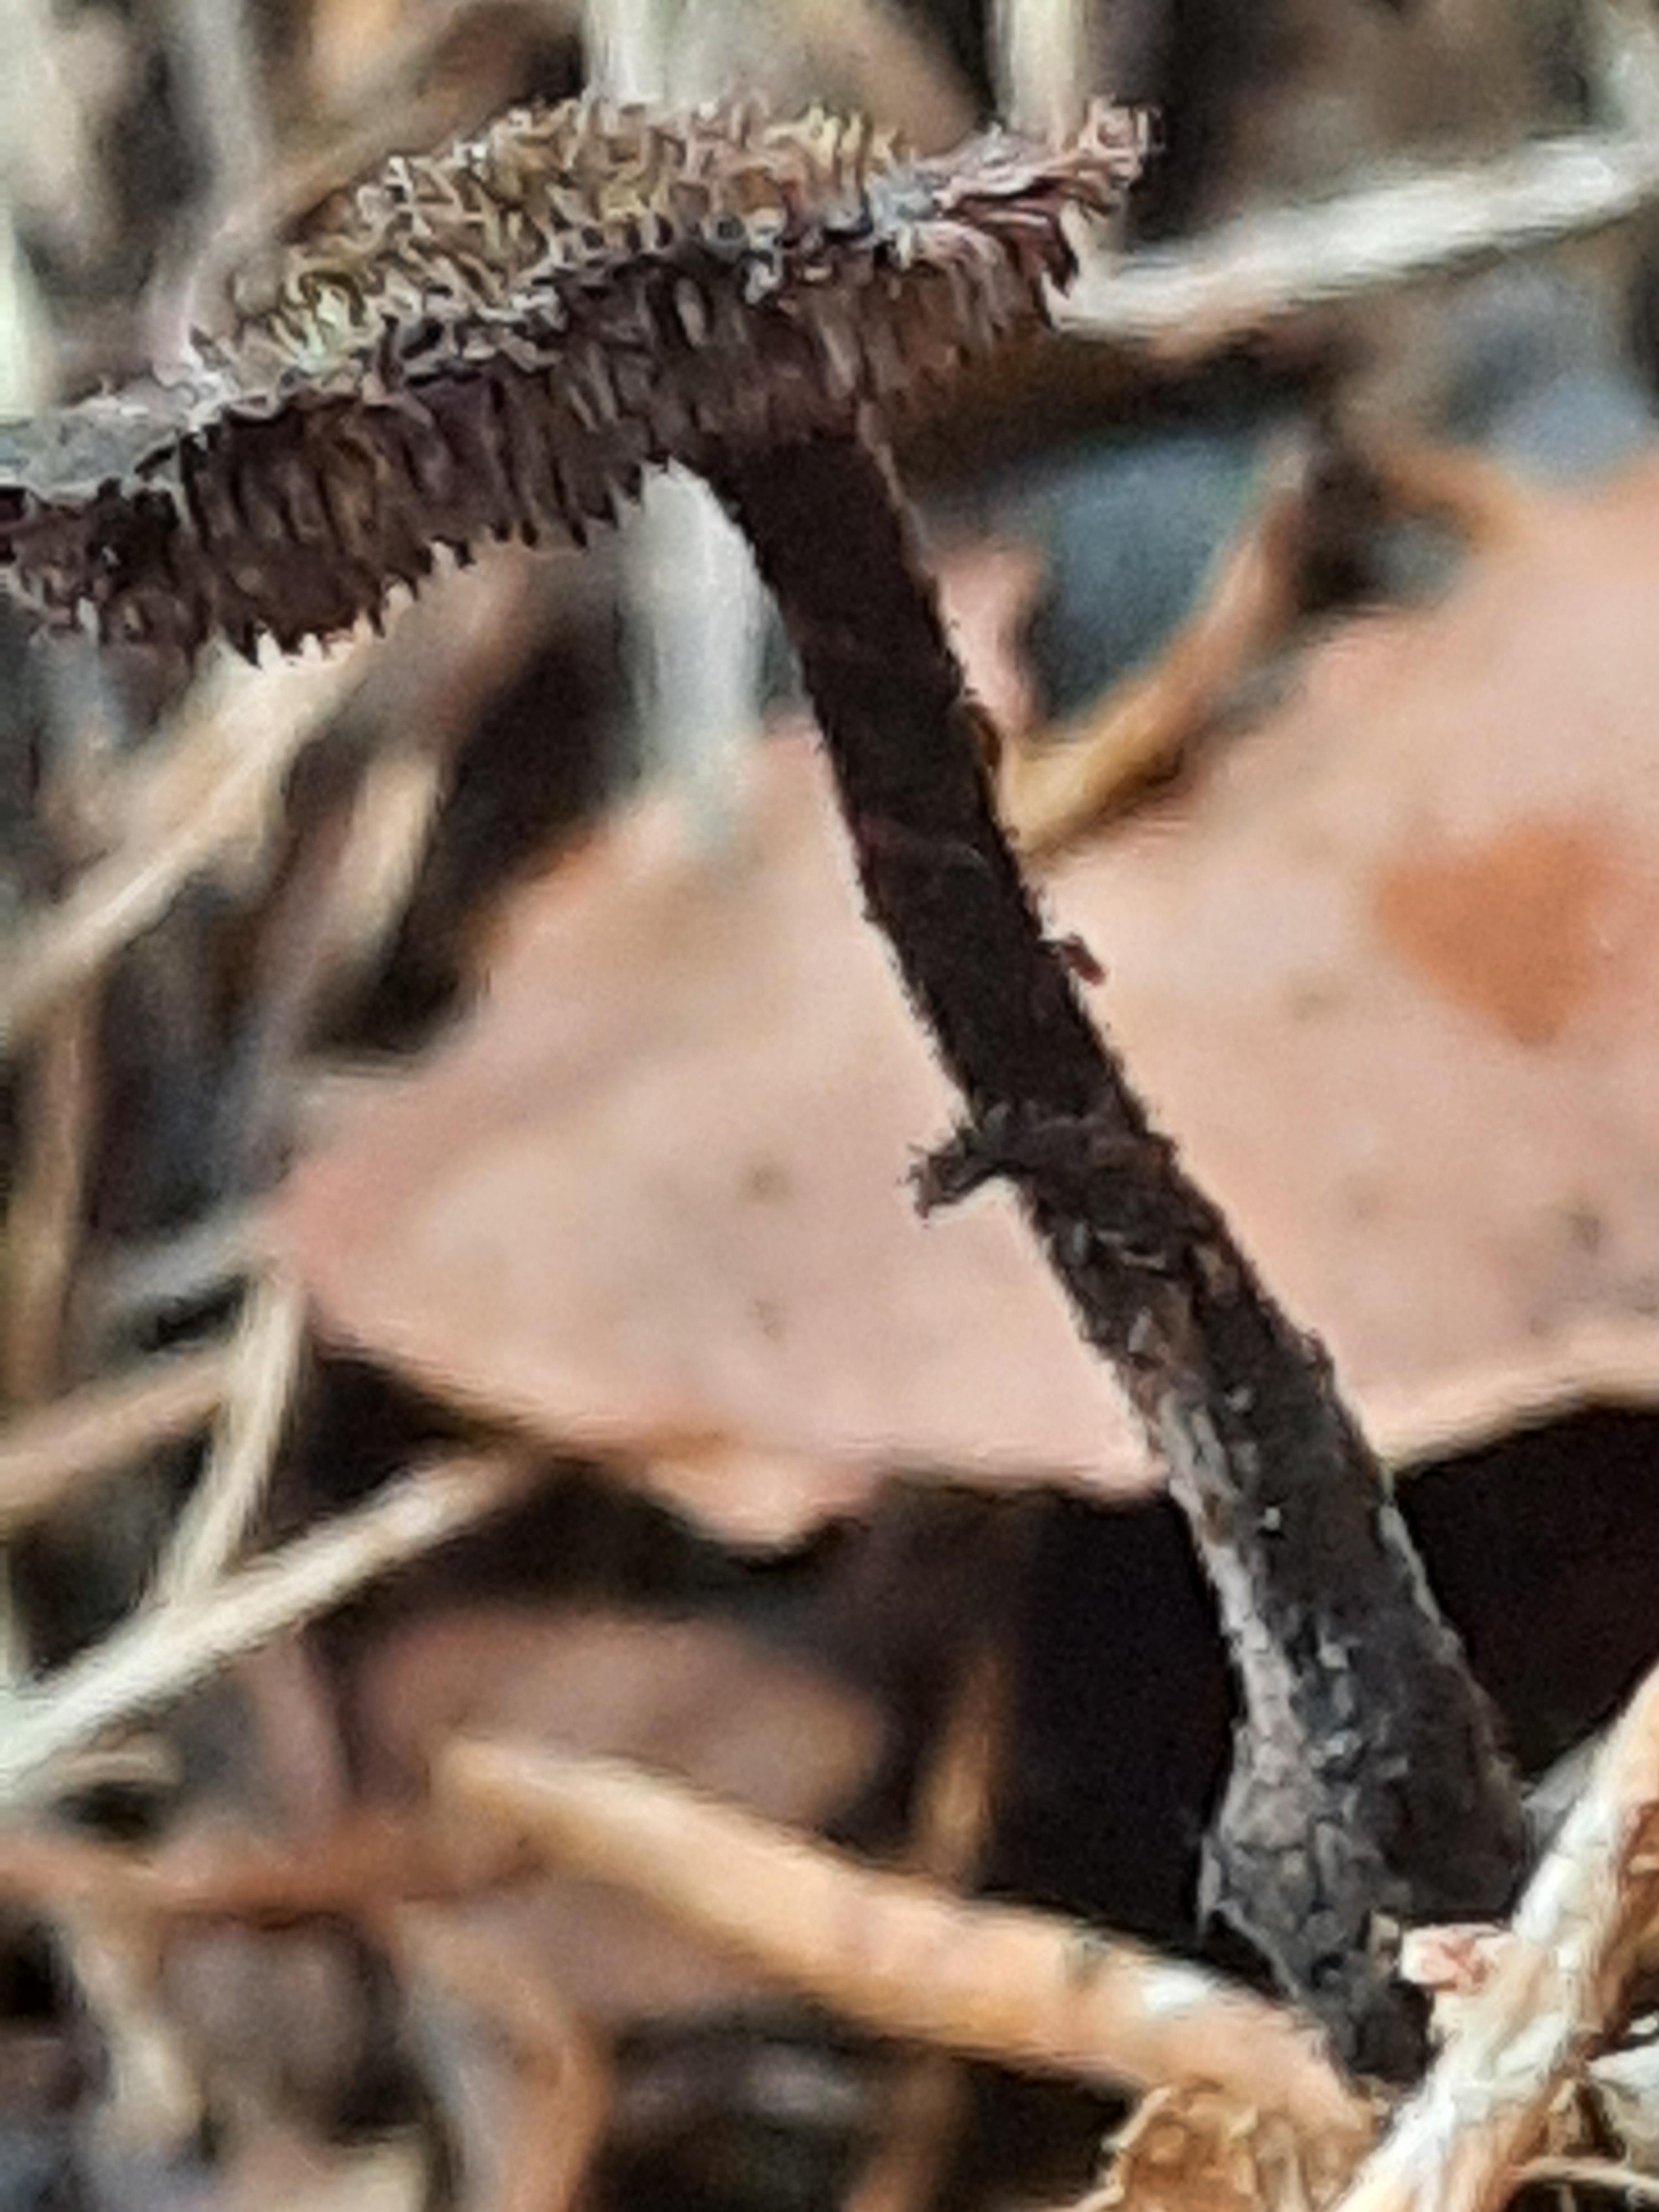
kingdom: Fungi
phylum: Basidiomycota
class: Agaricomycetes
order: Russulales
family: Auriscalpiaceae
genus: Auriscalpium
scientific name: Auriscalpium vulgare
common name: koglepigsvamp
